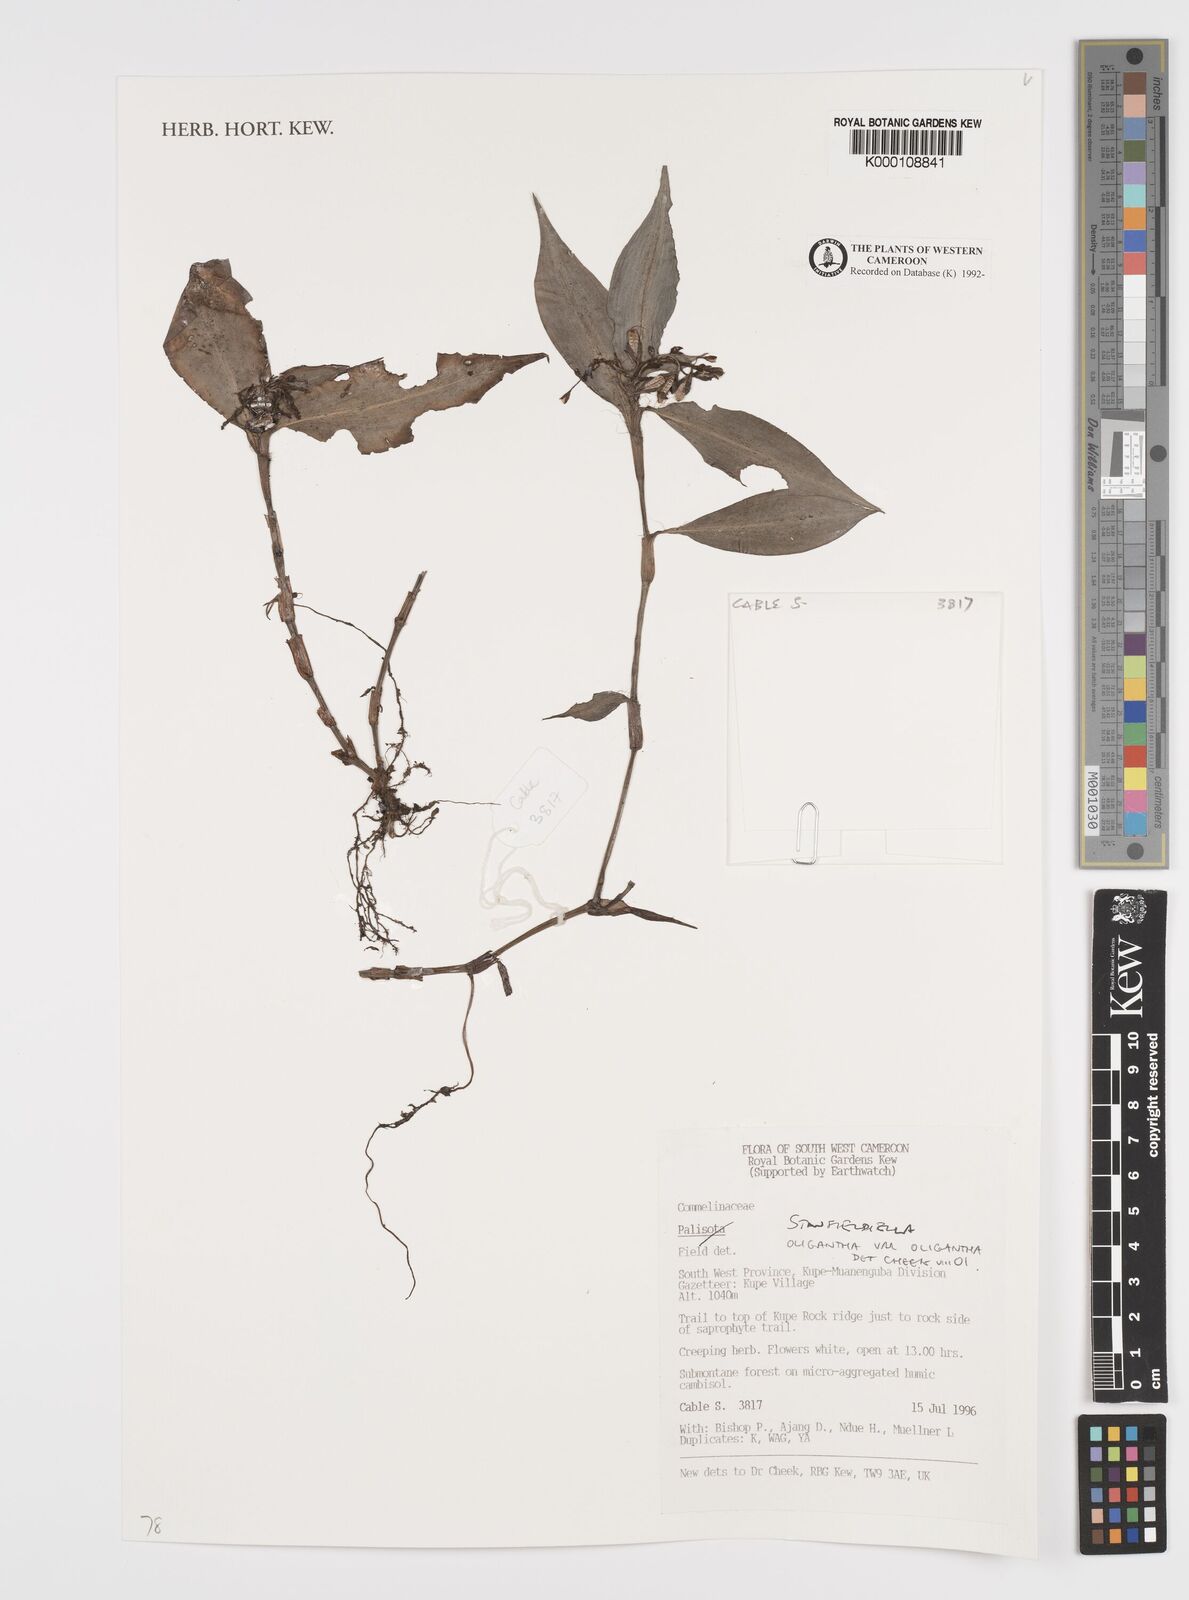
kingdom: Plantae
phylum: Tracheophyta
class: Liliopsida
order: Commelinales
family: Commelinaceae
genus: Stanfieldiella
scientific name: Stanfieldiella oligantha
